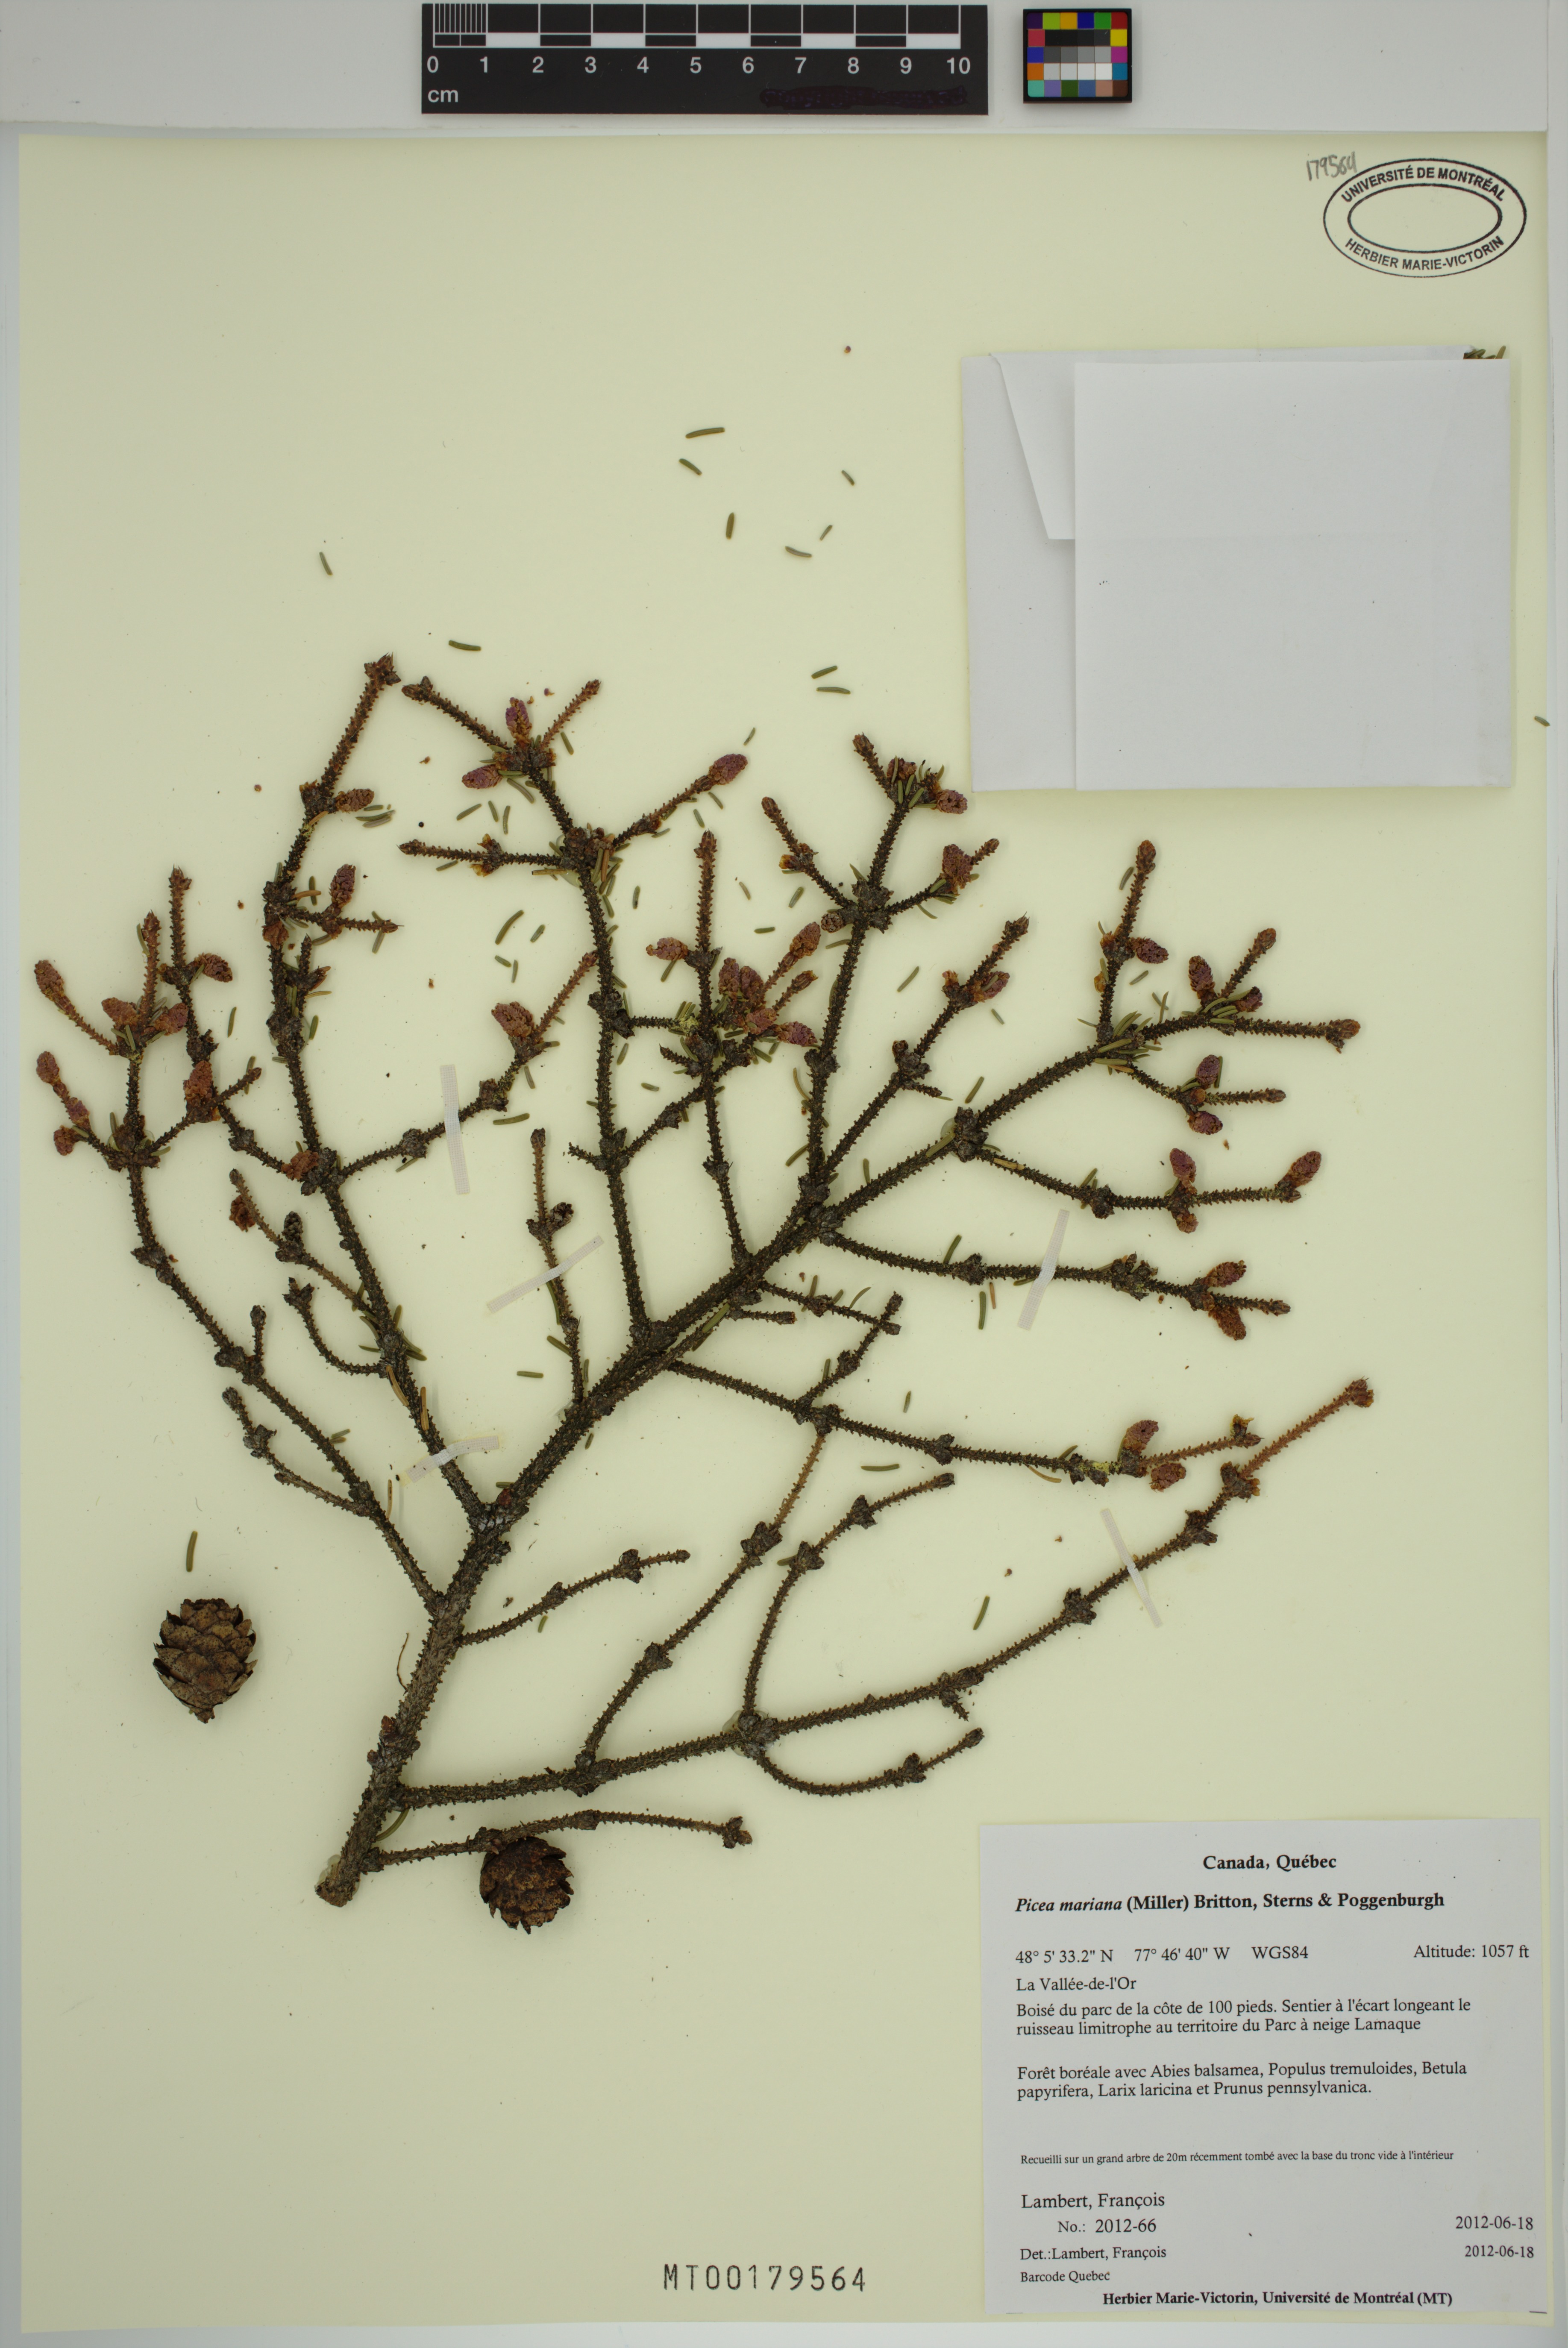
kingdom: Plantae
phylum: Tracheophyta
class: Pinopsida
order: Pinales
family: Pinaceae
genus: Picea
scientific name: Picea mariana
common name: Black spruce
